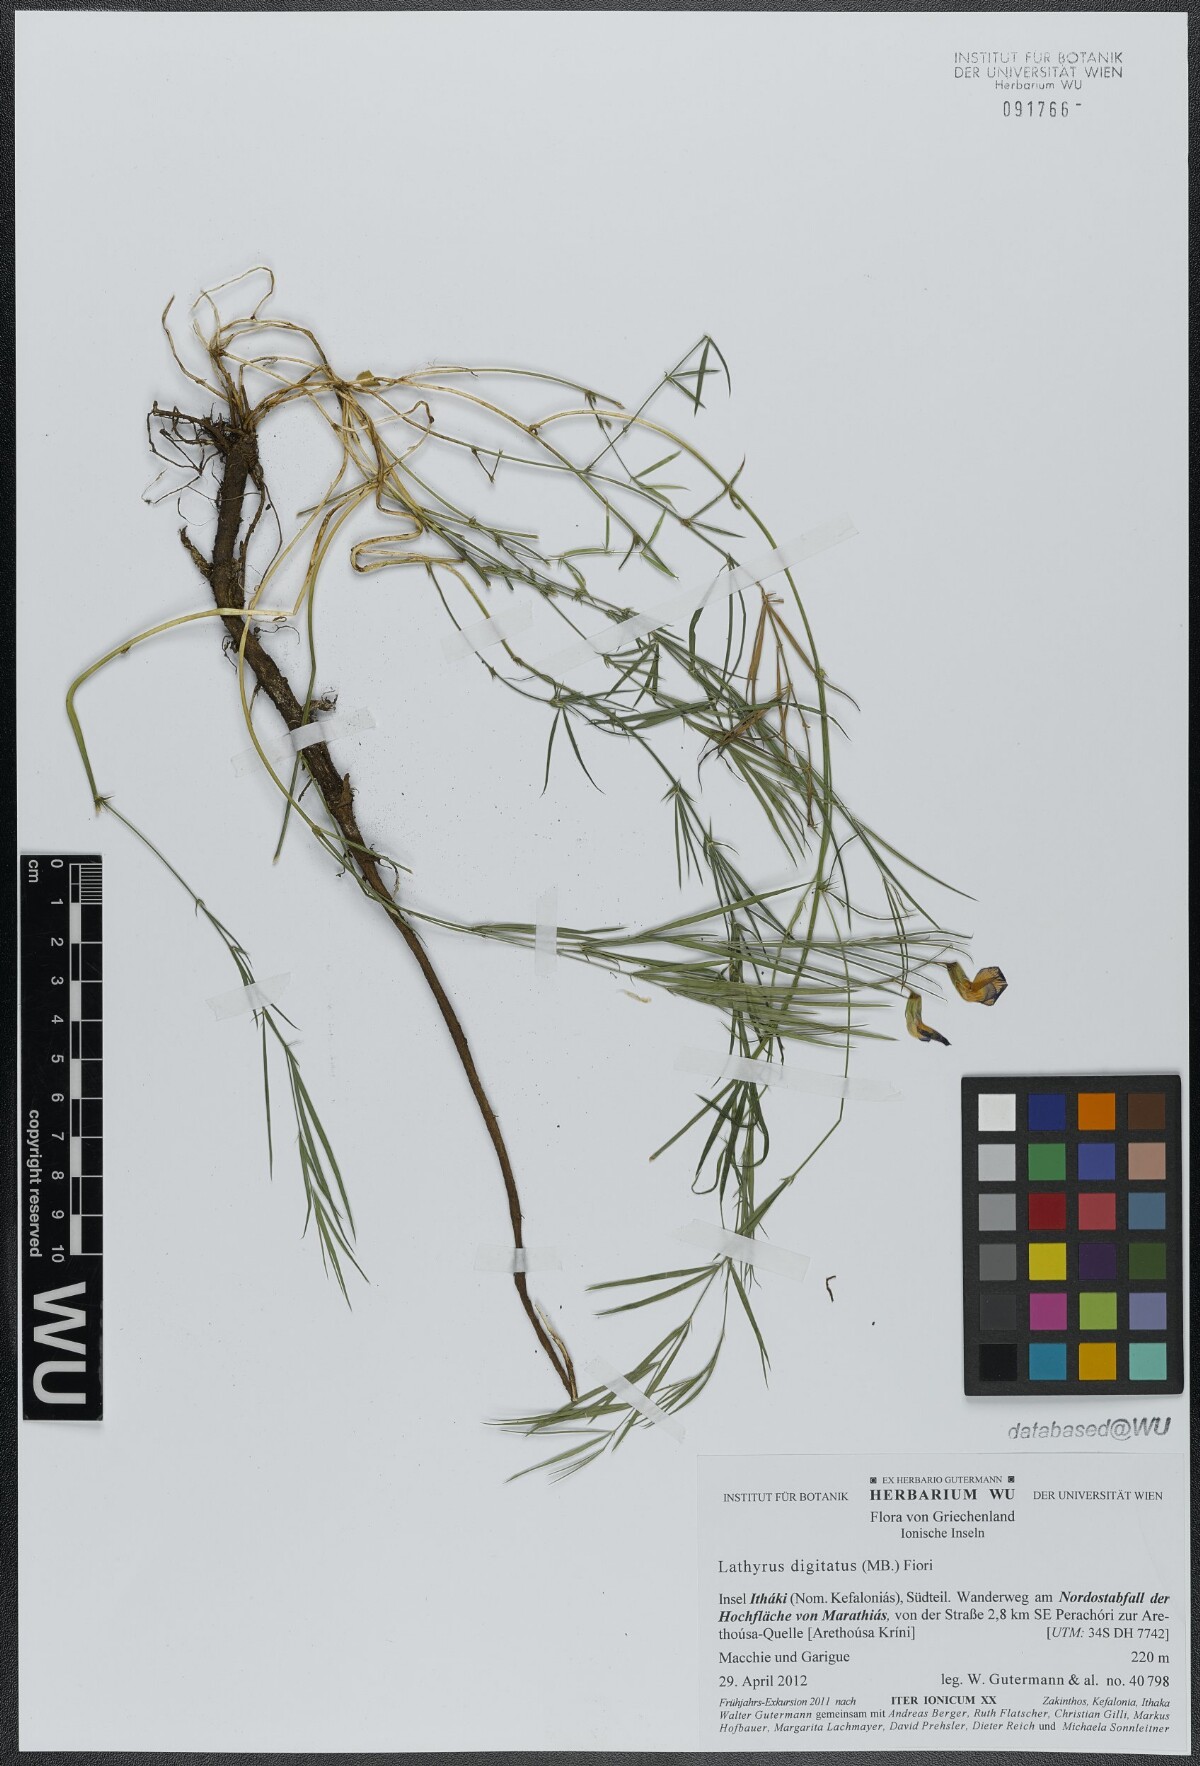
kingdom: Plantae
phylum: Tracheophyta
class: Magnoliopsida
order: Fabales
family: Fabaceae
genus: Lathyrus
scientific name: Lathyrus digitatus
